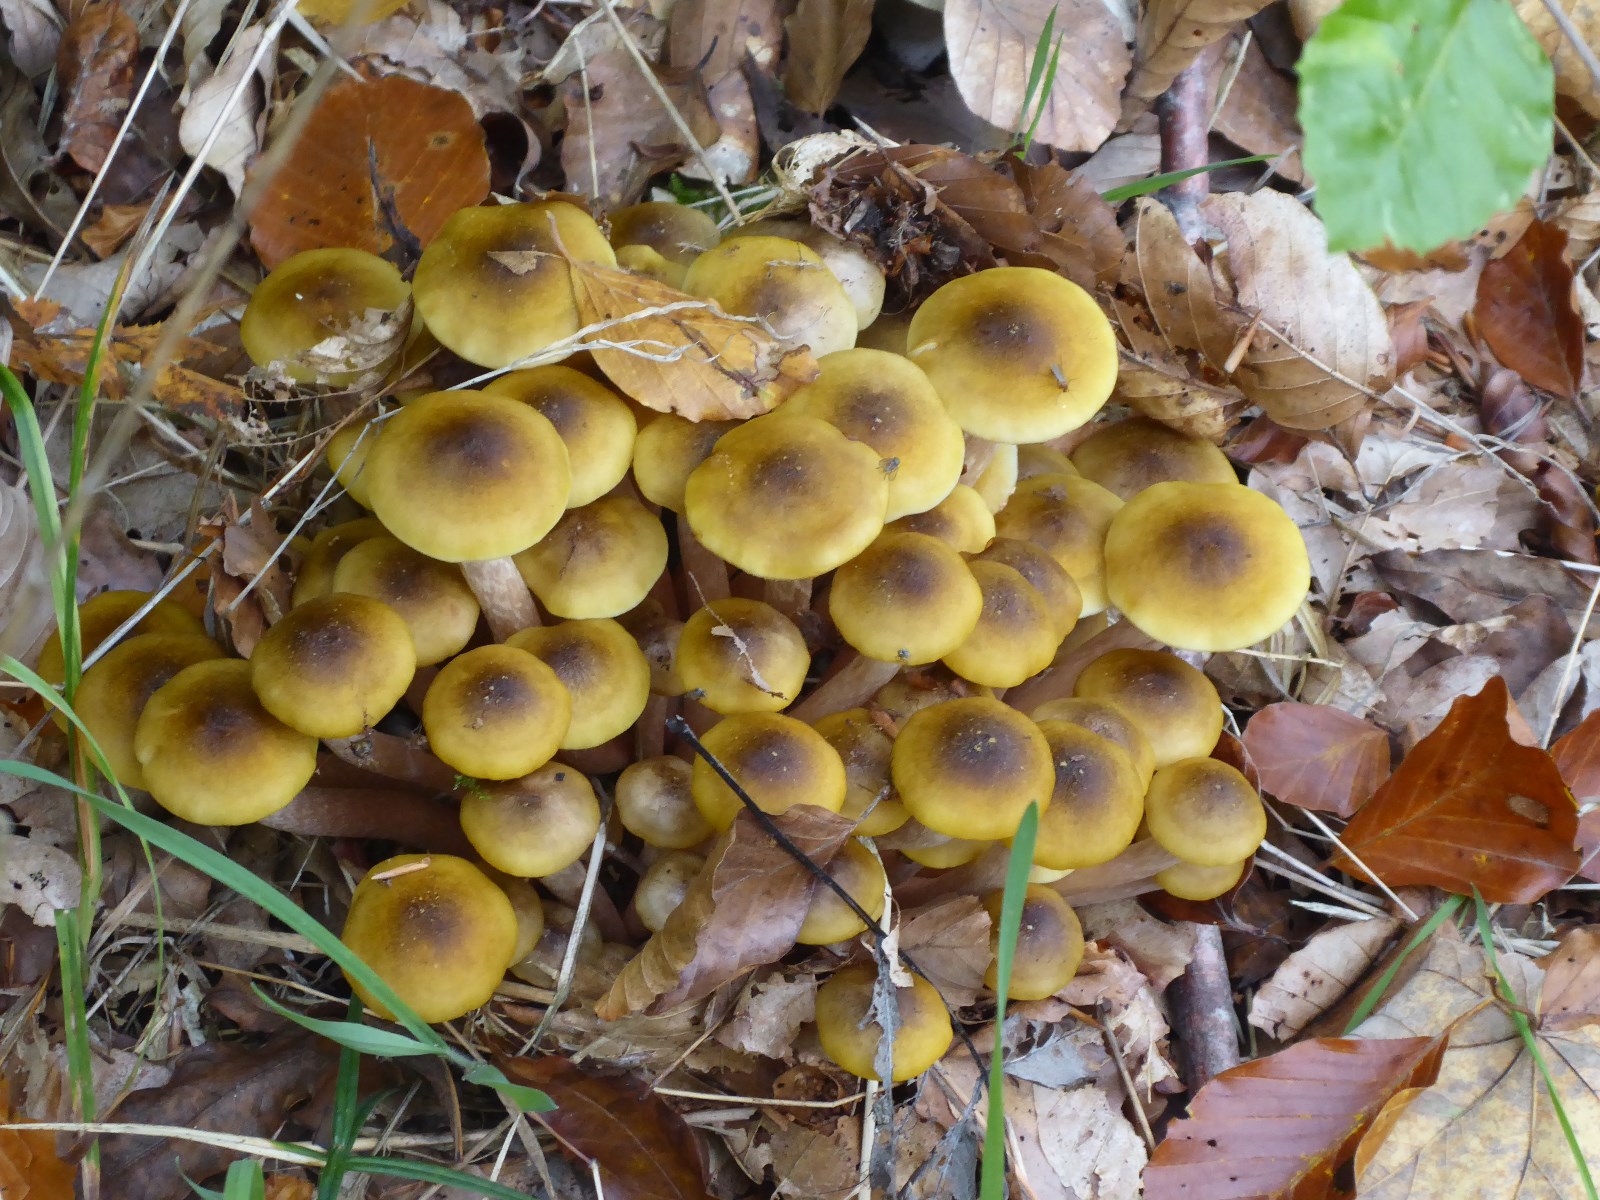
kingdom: Fungi
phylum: Basidiomycota
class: Agaricomycetes
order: Agaricales
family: Physalacriaceae
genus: Armillaria
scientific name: Armillaria mellea
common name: ægte honningsvamp
